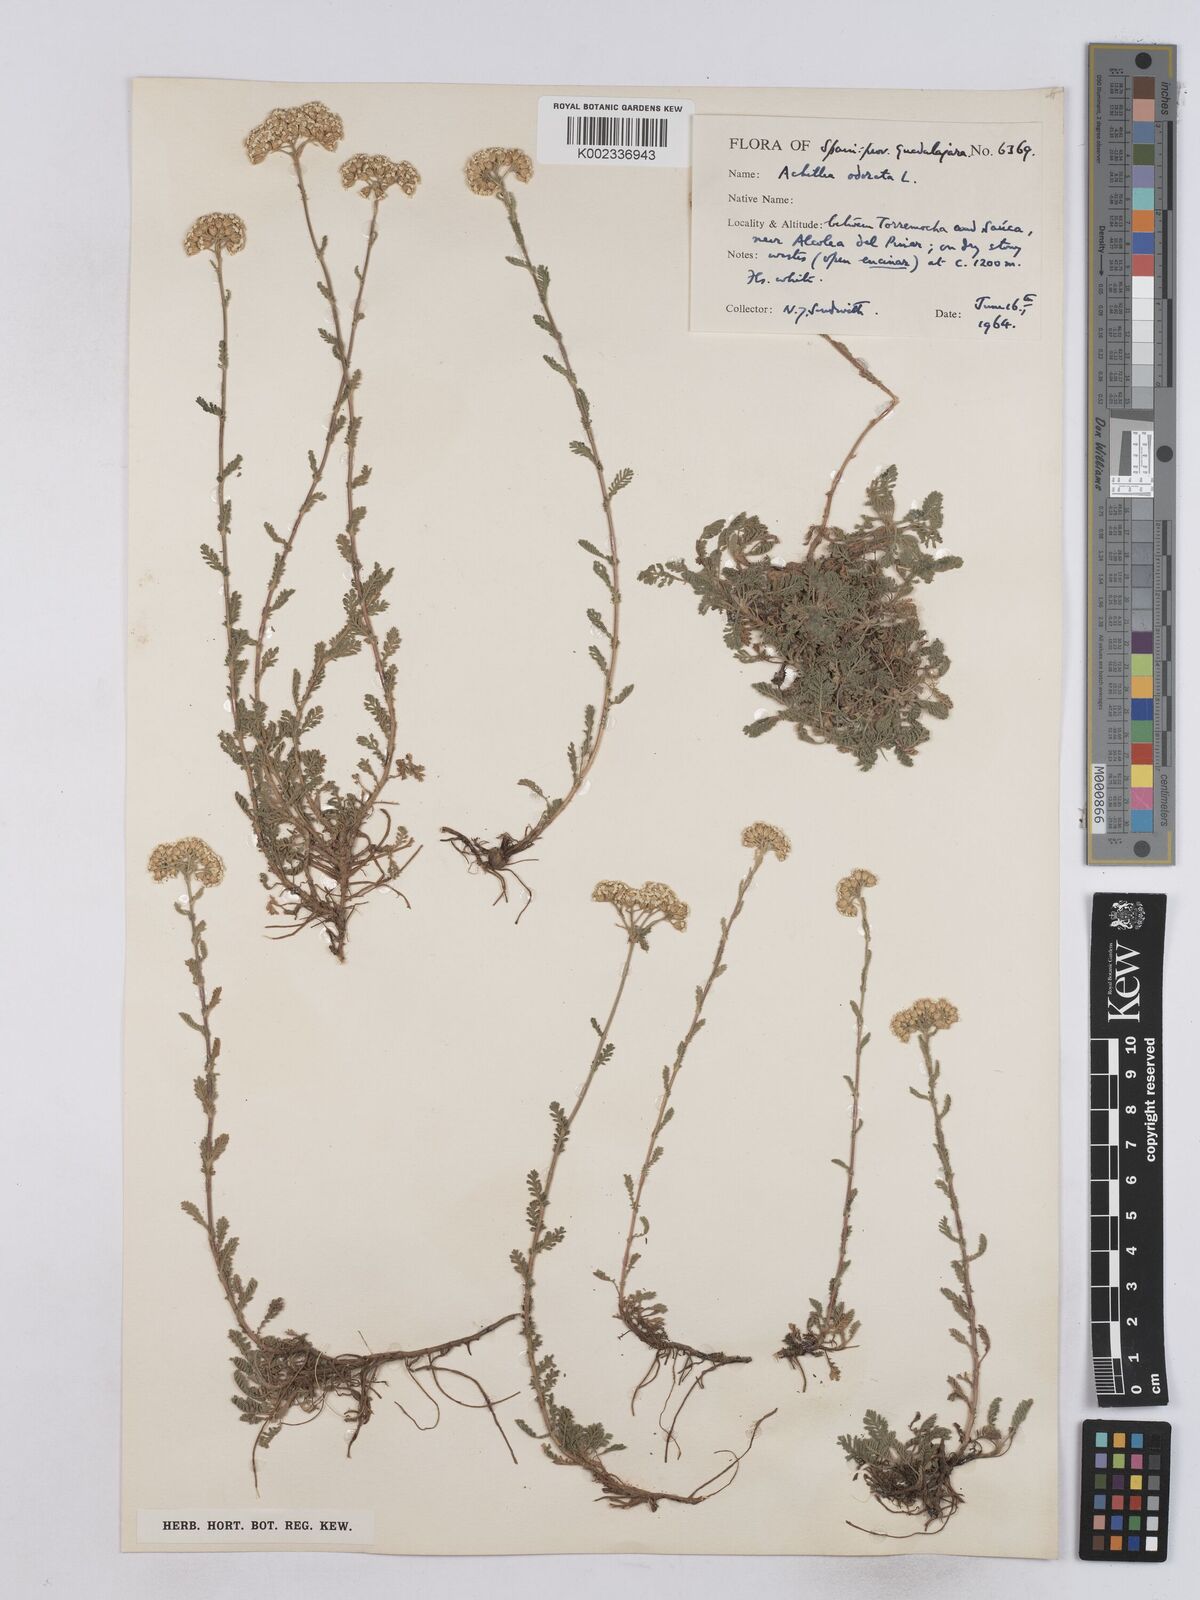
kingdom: Plantae
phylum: Tracheophyta
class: Magnoliopsida
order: Asterales
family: Asteraceae
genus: Achillea
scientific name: Achillea odorata
